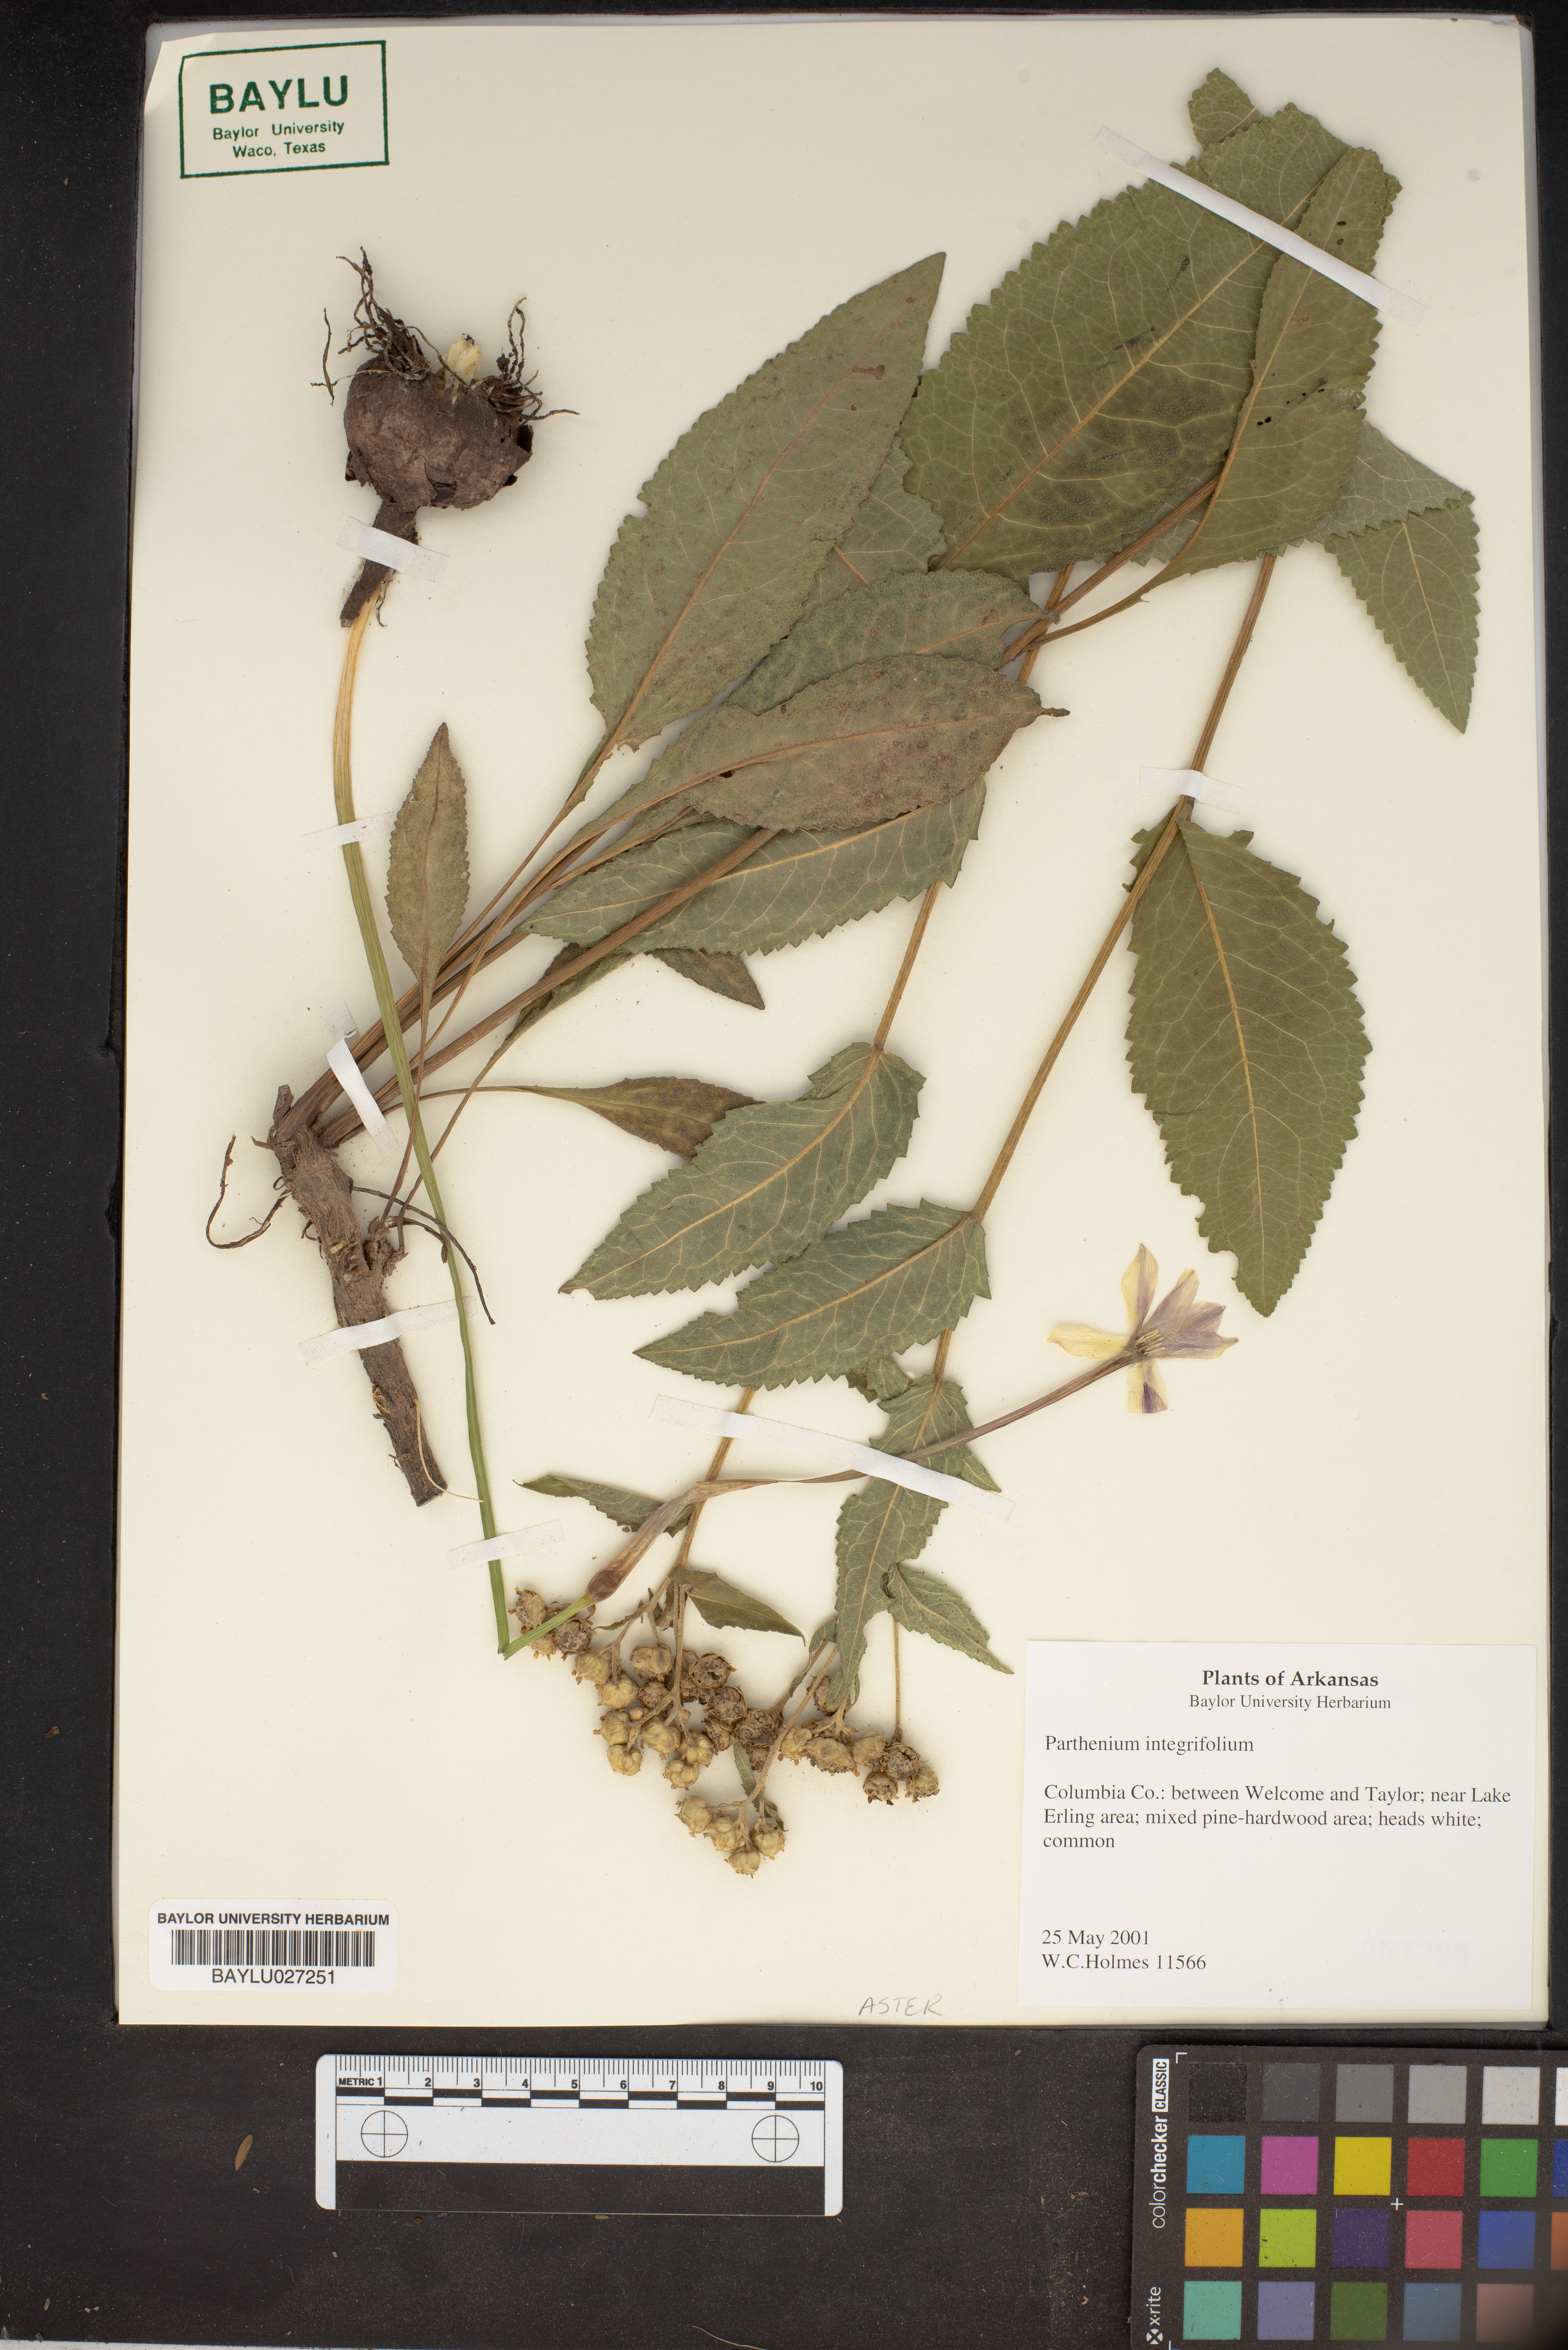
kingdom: Plantae
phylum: Tracheophyta
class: Magnoliopsida
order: Asterales
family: Asteraceae
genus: Parthenium
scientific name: Parthenium integrifolium
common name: American feverfew
